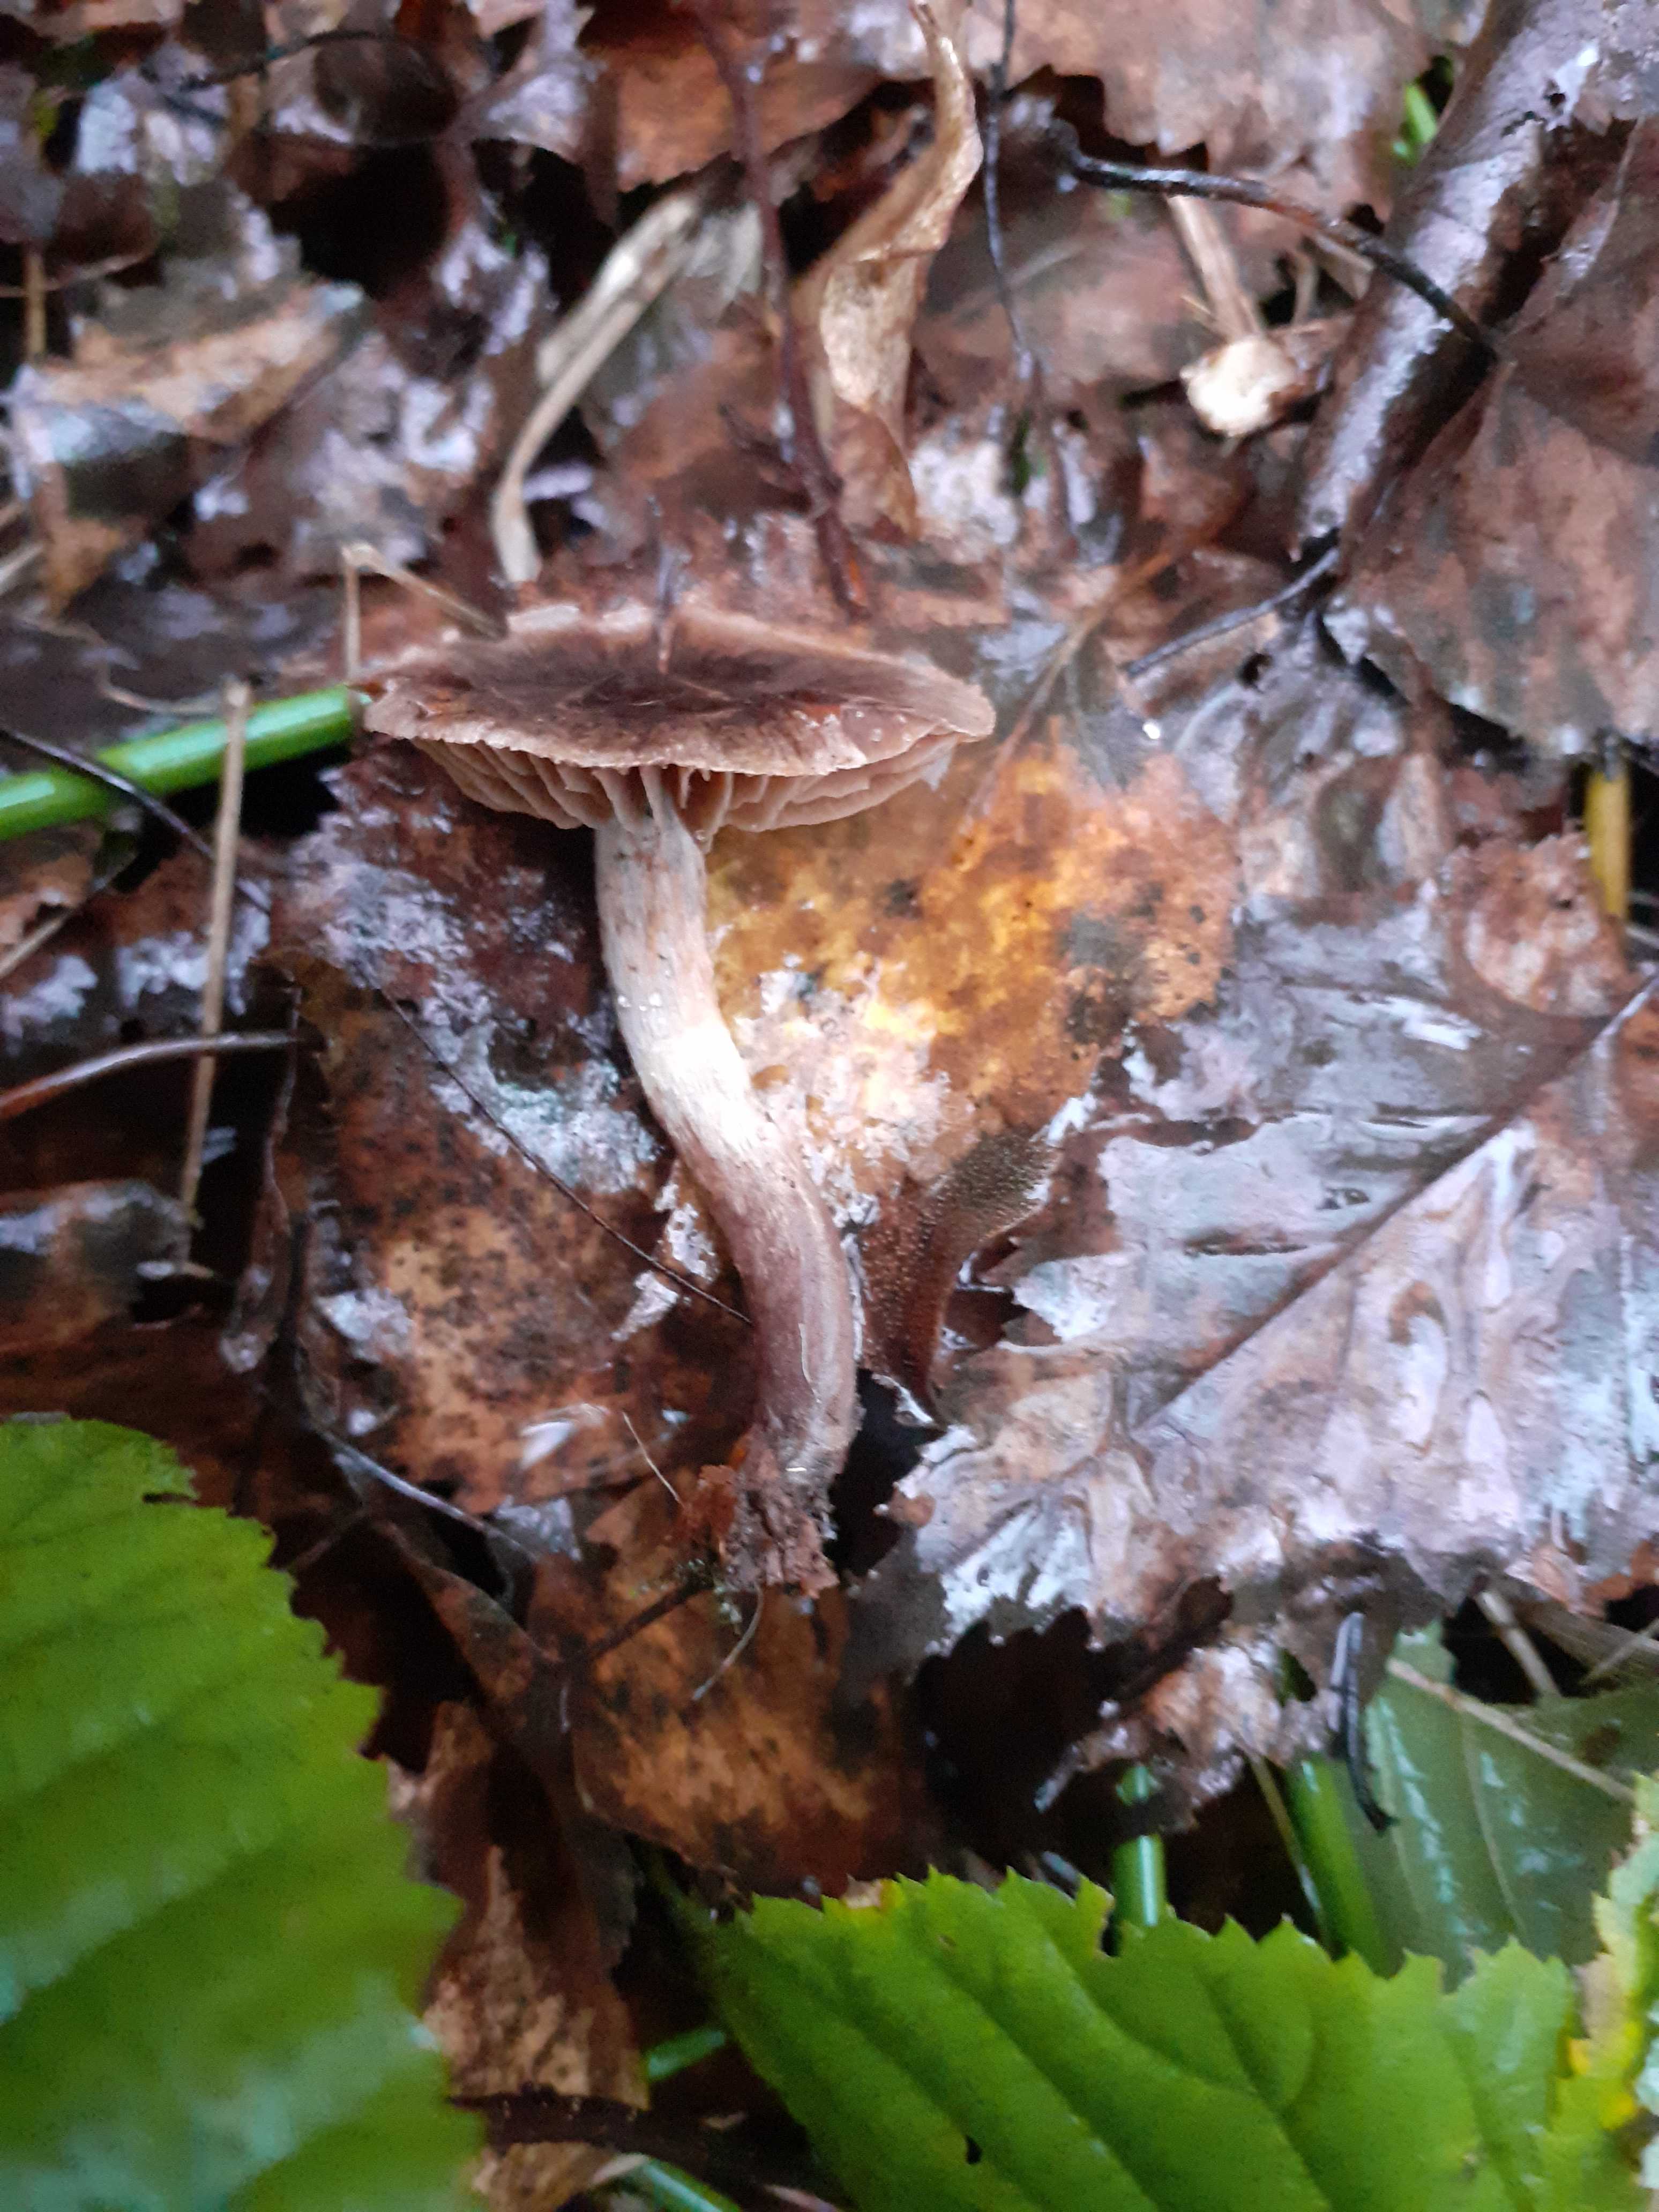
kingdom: Fungi
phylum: Basidiomycota
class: Agaricomycetes
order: Agaricales
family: Cortinariaceae
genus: Cortinarius
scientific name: Cortinarius umbrinolens
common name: mørk slørhat
